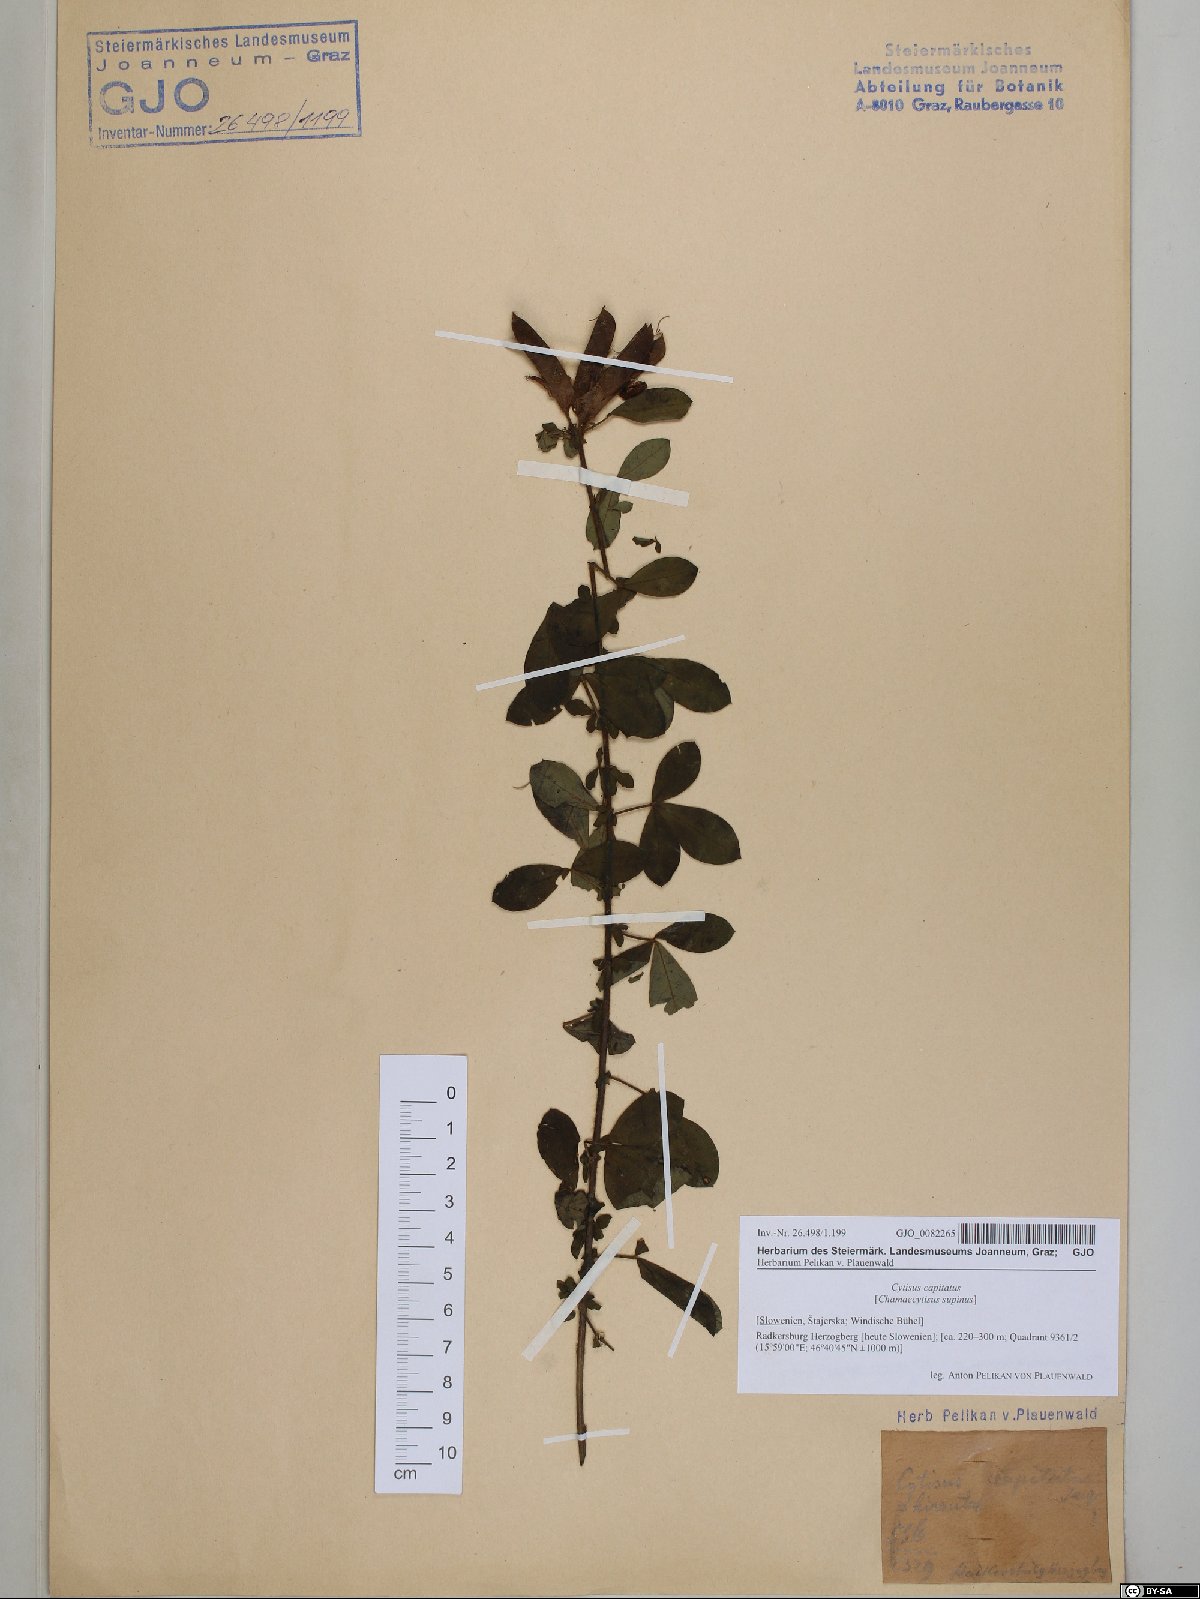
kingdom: Plantae
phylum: Tracheophyta
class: Magnoliopsida
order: Fabales
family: Fabaceae
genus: Chamaecytisus
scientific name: Chamaecytisus hirsutus
